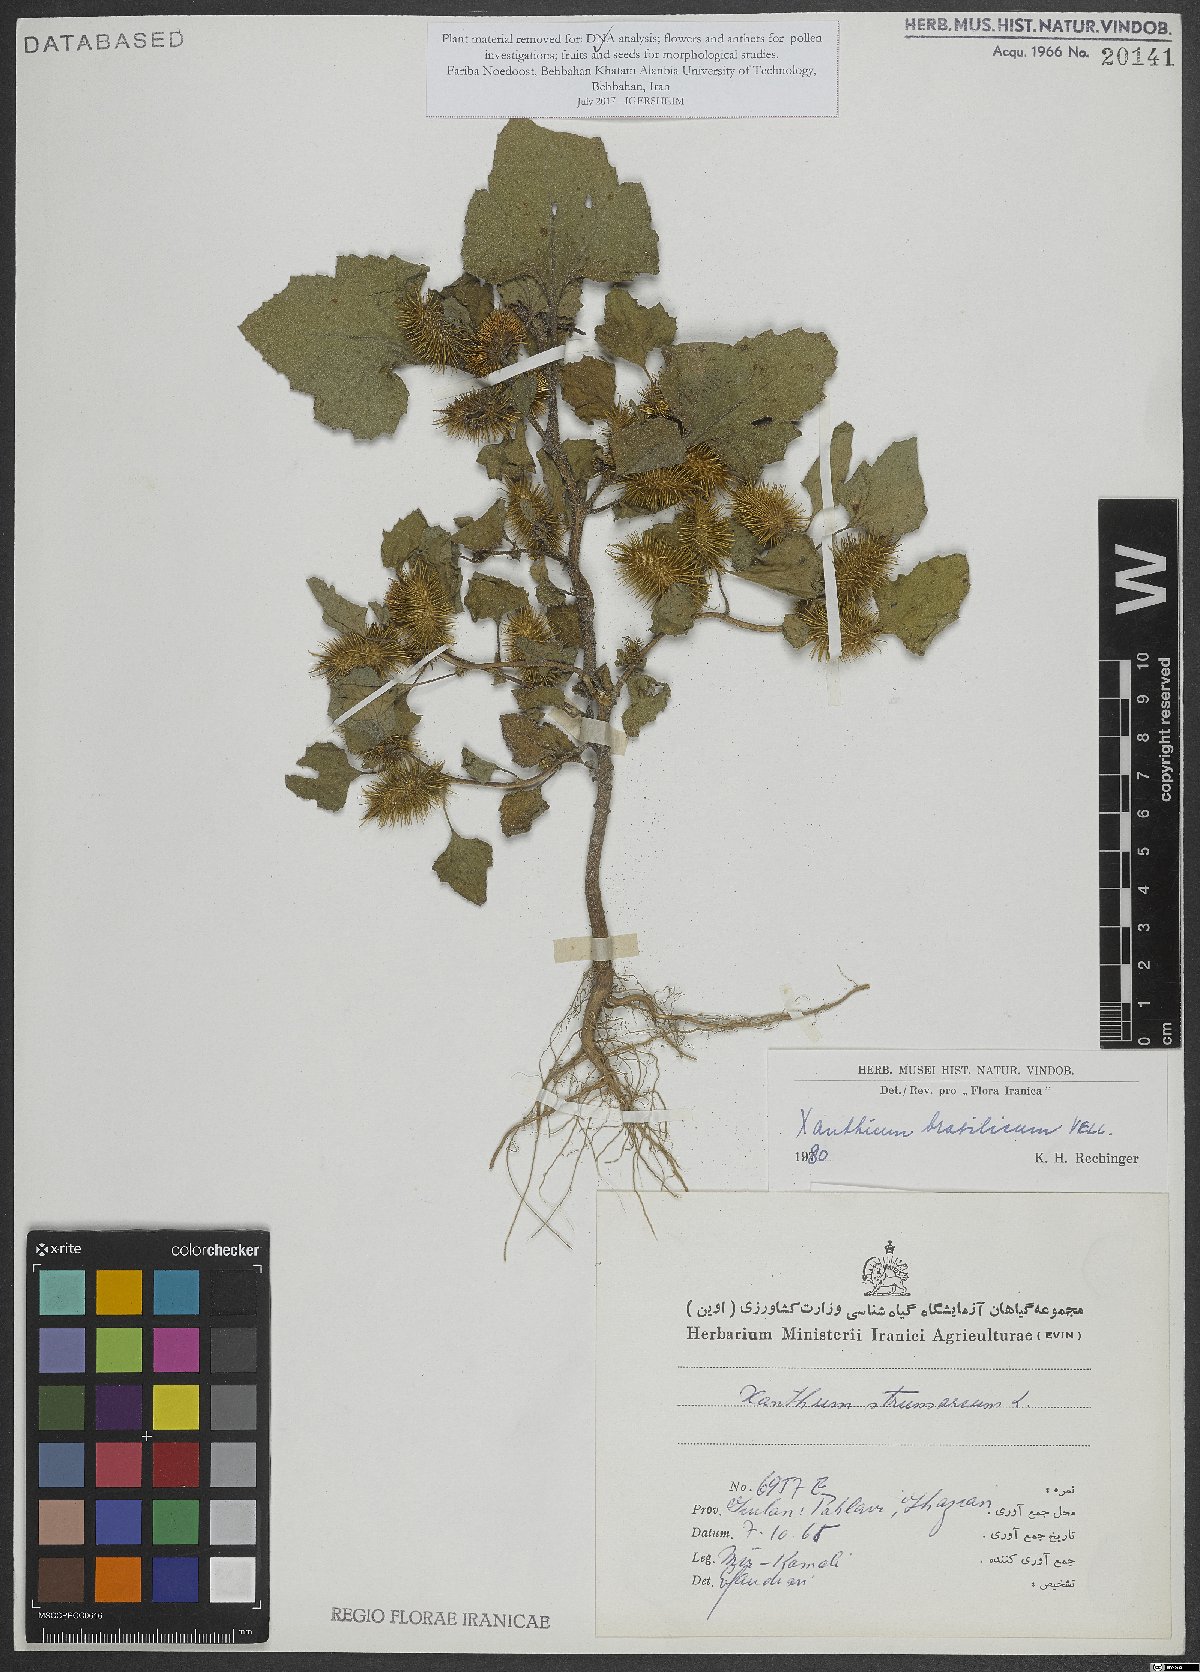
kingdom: Plantae
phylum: Tracheophyta
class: Magnoliopsida
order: Asterales
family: Asteraceae
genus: Xanthium
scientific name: Xanthium strumarium
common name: Rough cocklebur
